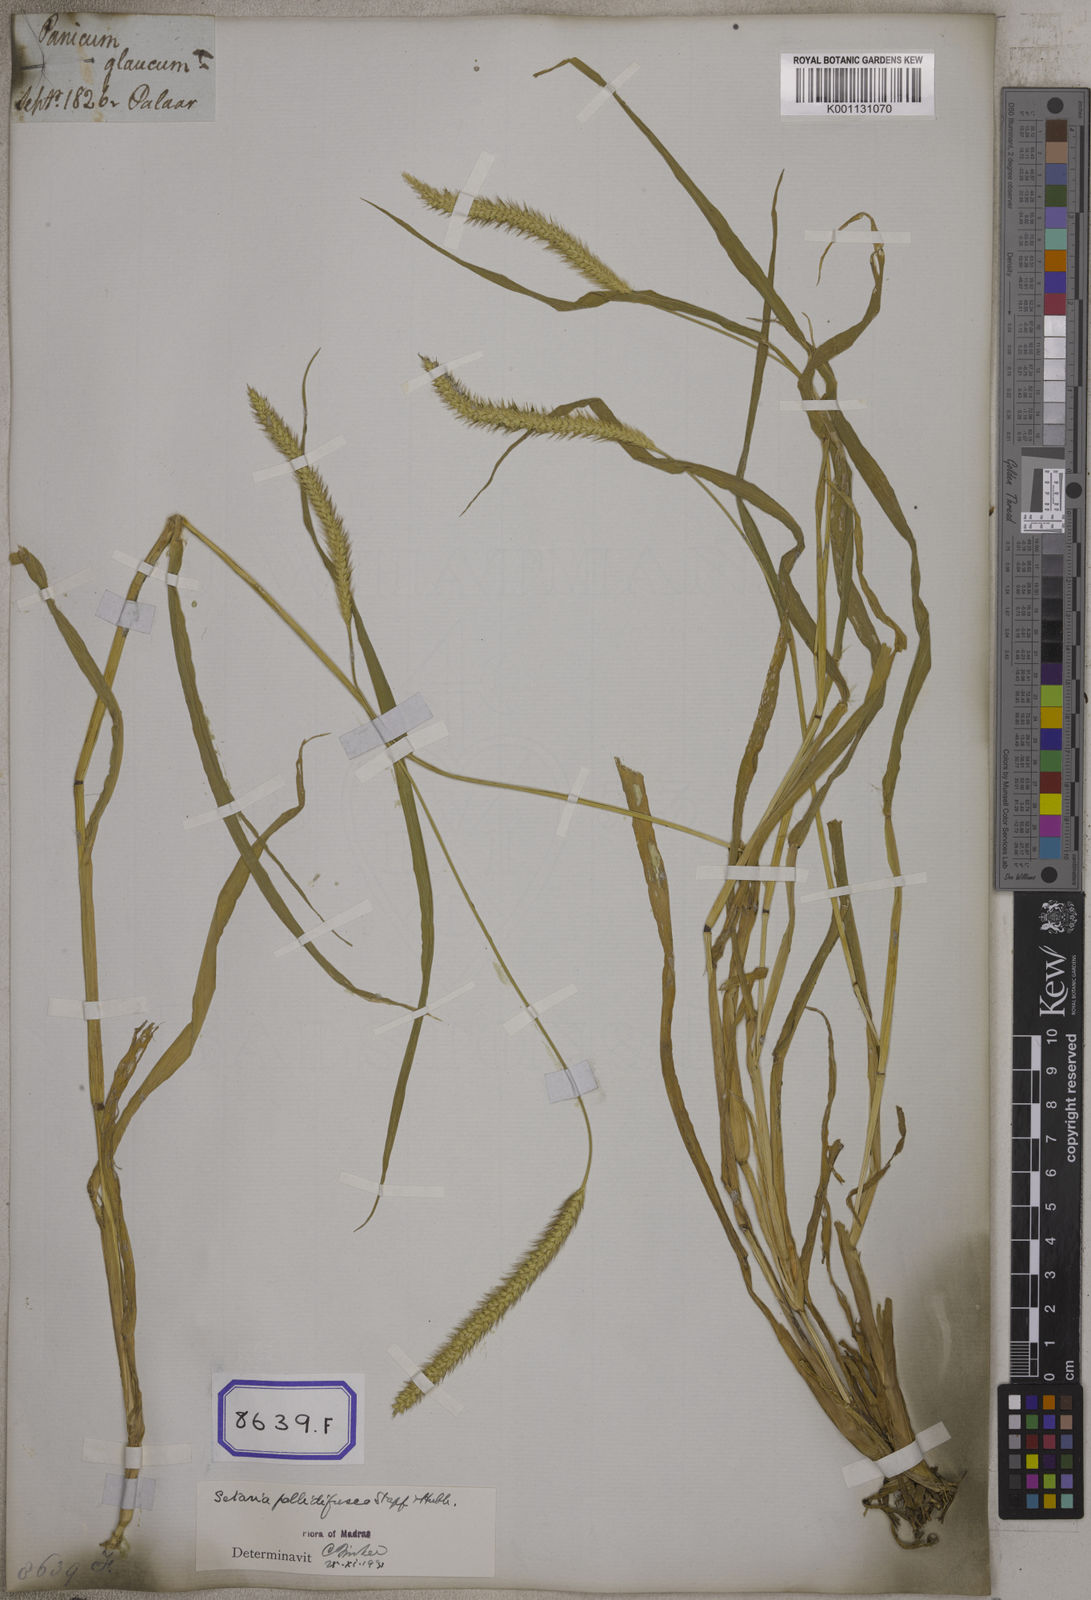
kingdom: Plantae
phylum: Tracheophyta
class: Liliopsida
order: Poales
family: Poaceae
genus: Cenchrus
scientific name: Cenchrus americanus
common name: Pearl millet
